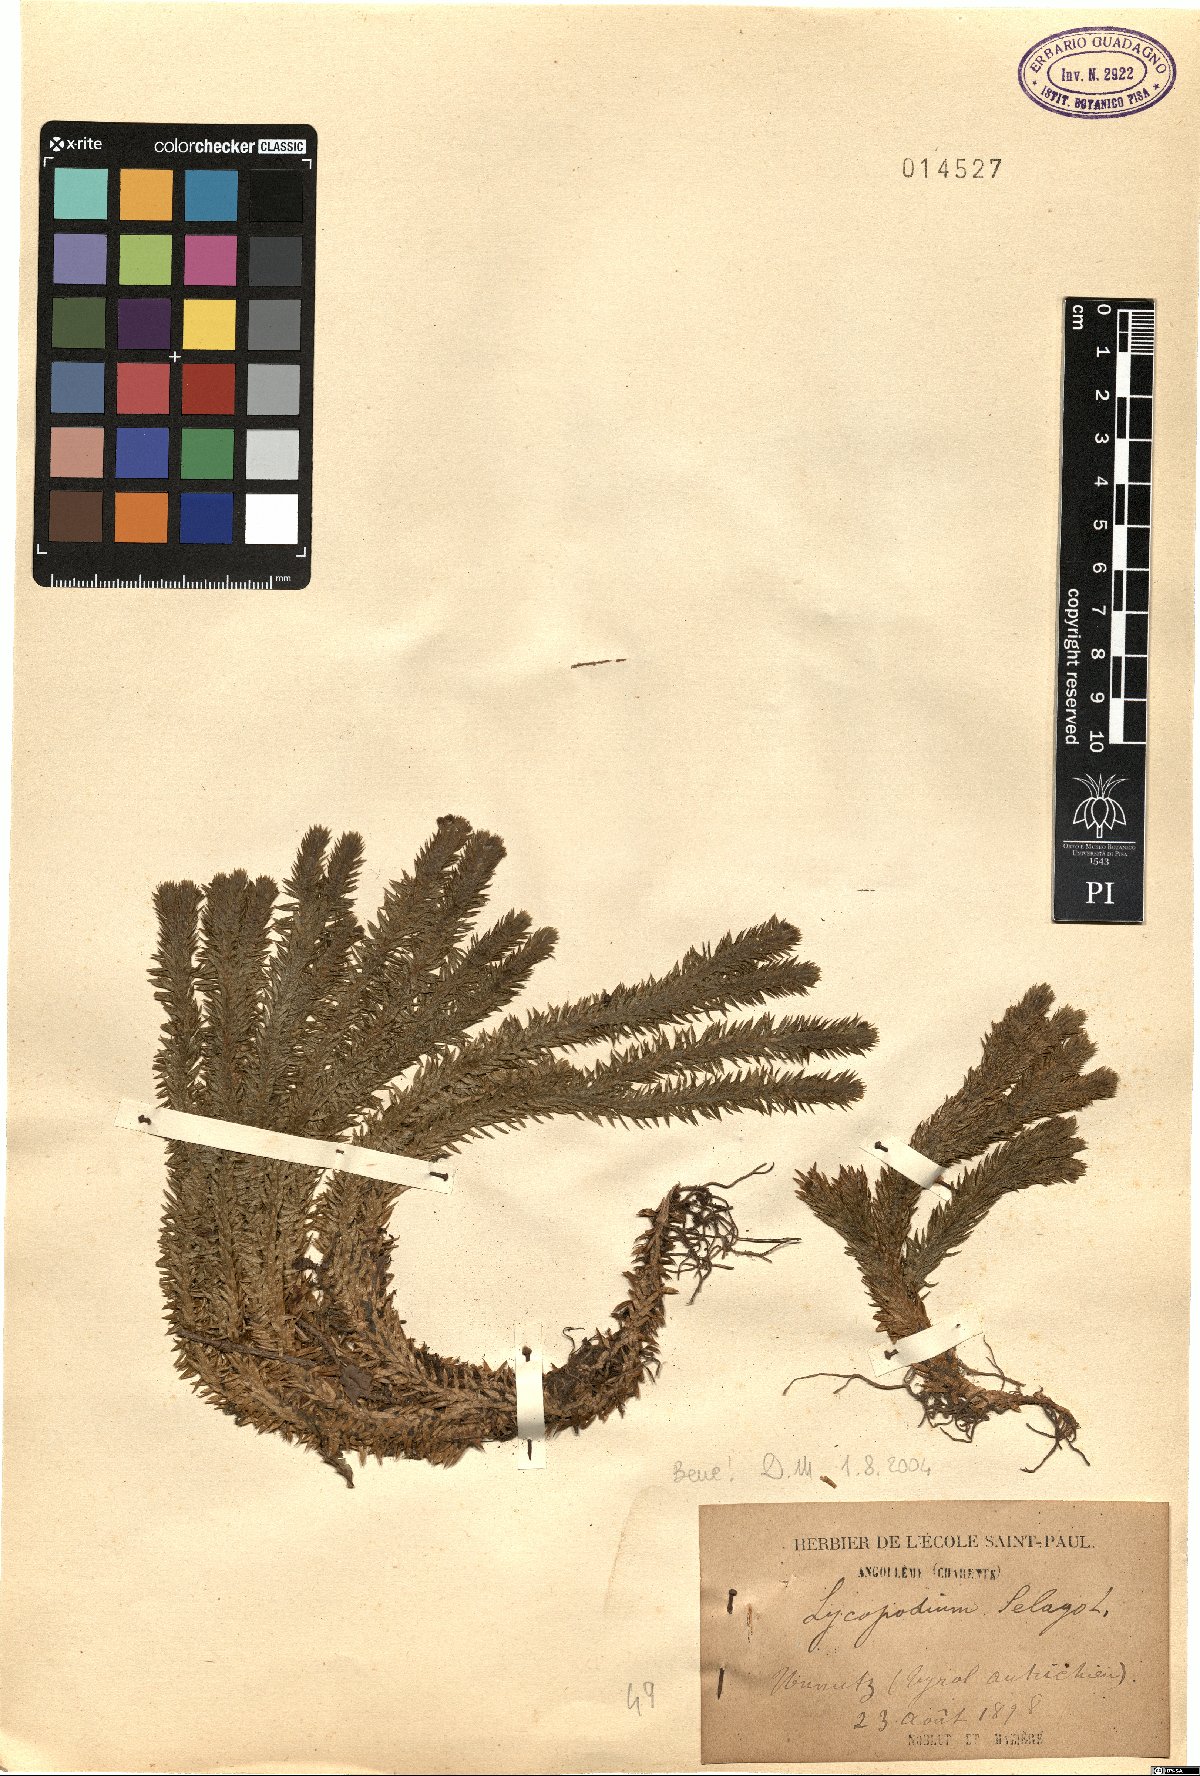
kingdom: Plantae
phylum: Tracheophyta
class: Lycopodiopsida
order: Lycopodiales
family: Lycopodiaceae
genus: Huperzia
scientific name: Huperzia selago
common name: Northern firmoss
